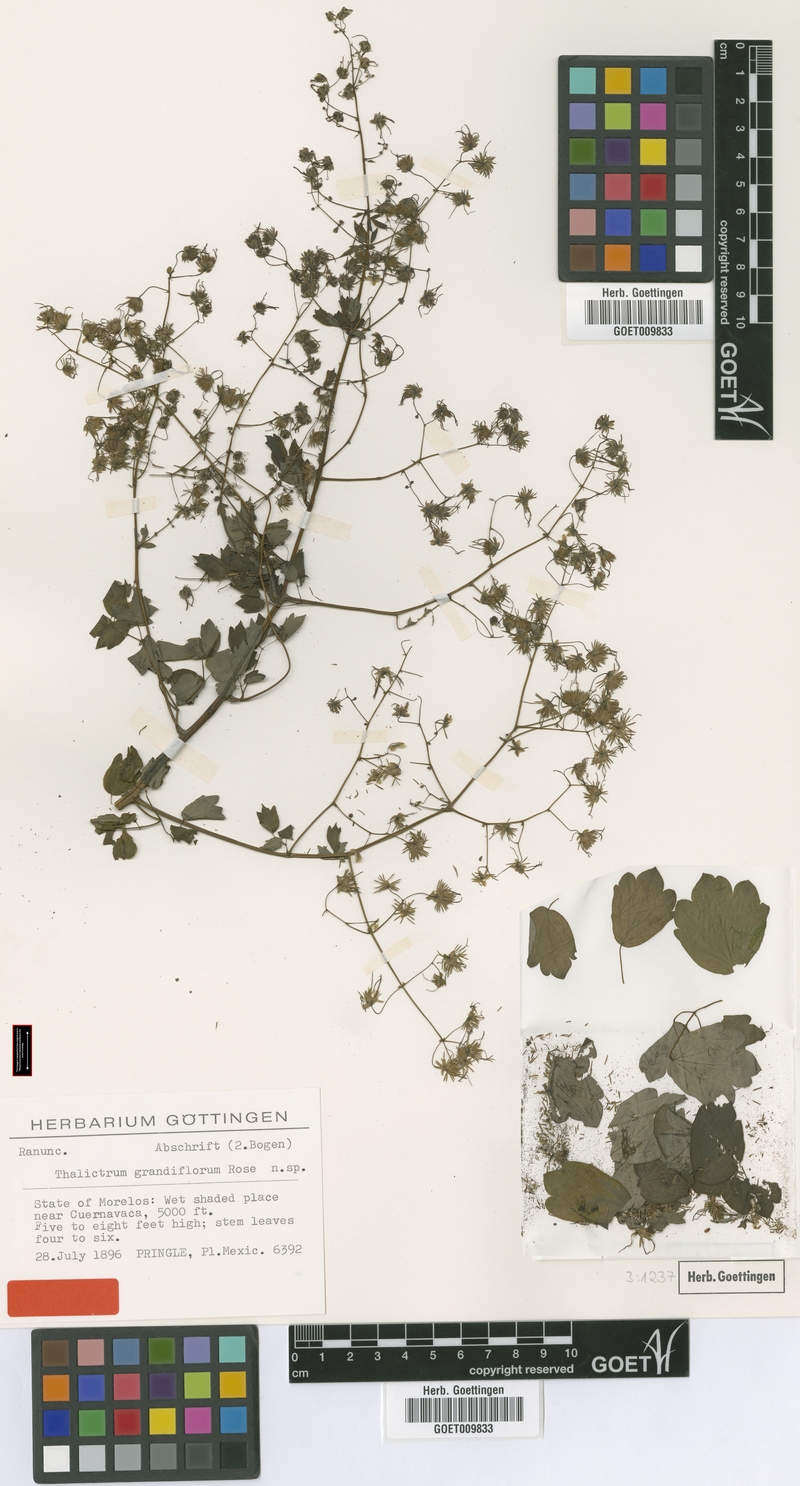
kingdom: Plantae
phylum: Tracheophyta
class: Magnoliopsida
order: Ranunculales
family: Ranunculaceae
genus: Thalictrum
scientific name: Thalictrum grandifolium
